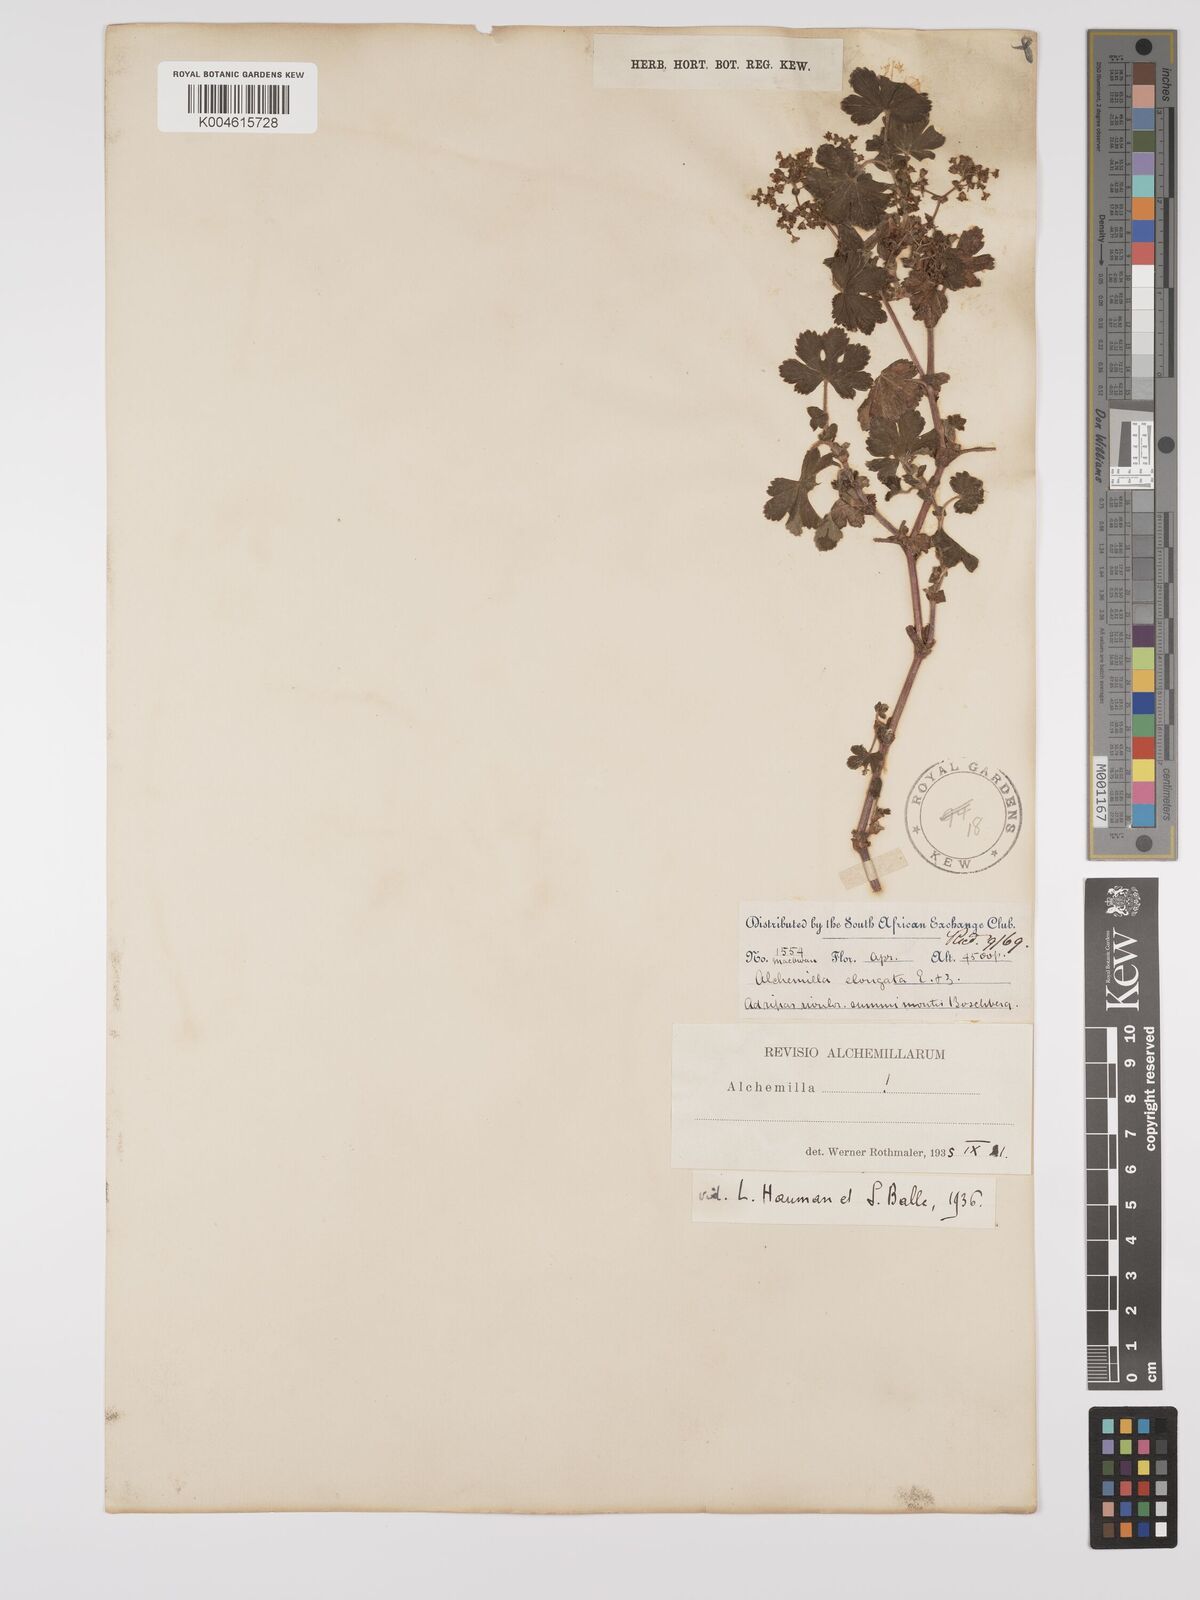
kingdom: Plantae
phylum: Tracheophyta
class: Magnoliopsida
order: Rosales
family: Rosaceae
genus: Alchemilla
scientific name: Alchemilla elongata
